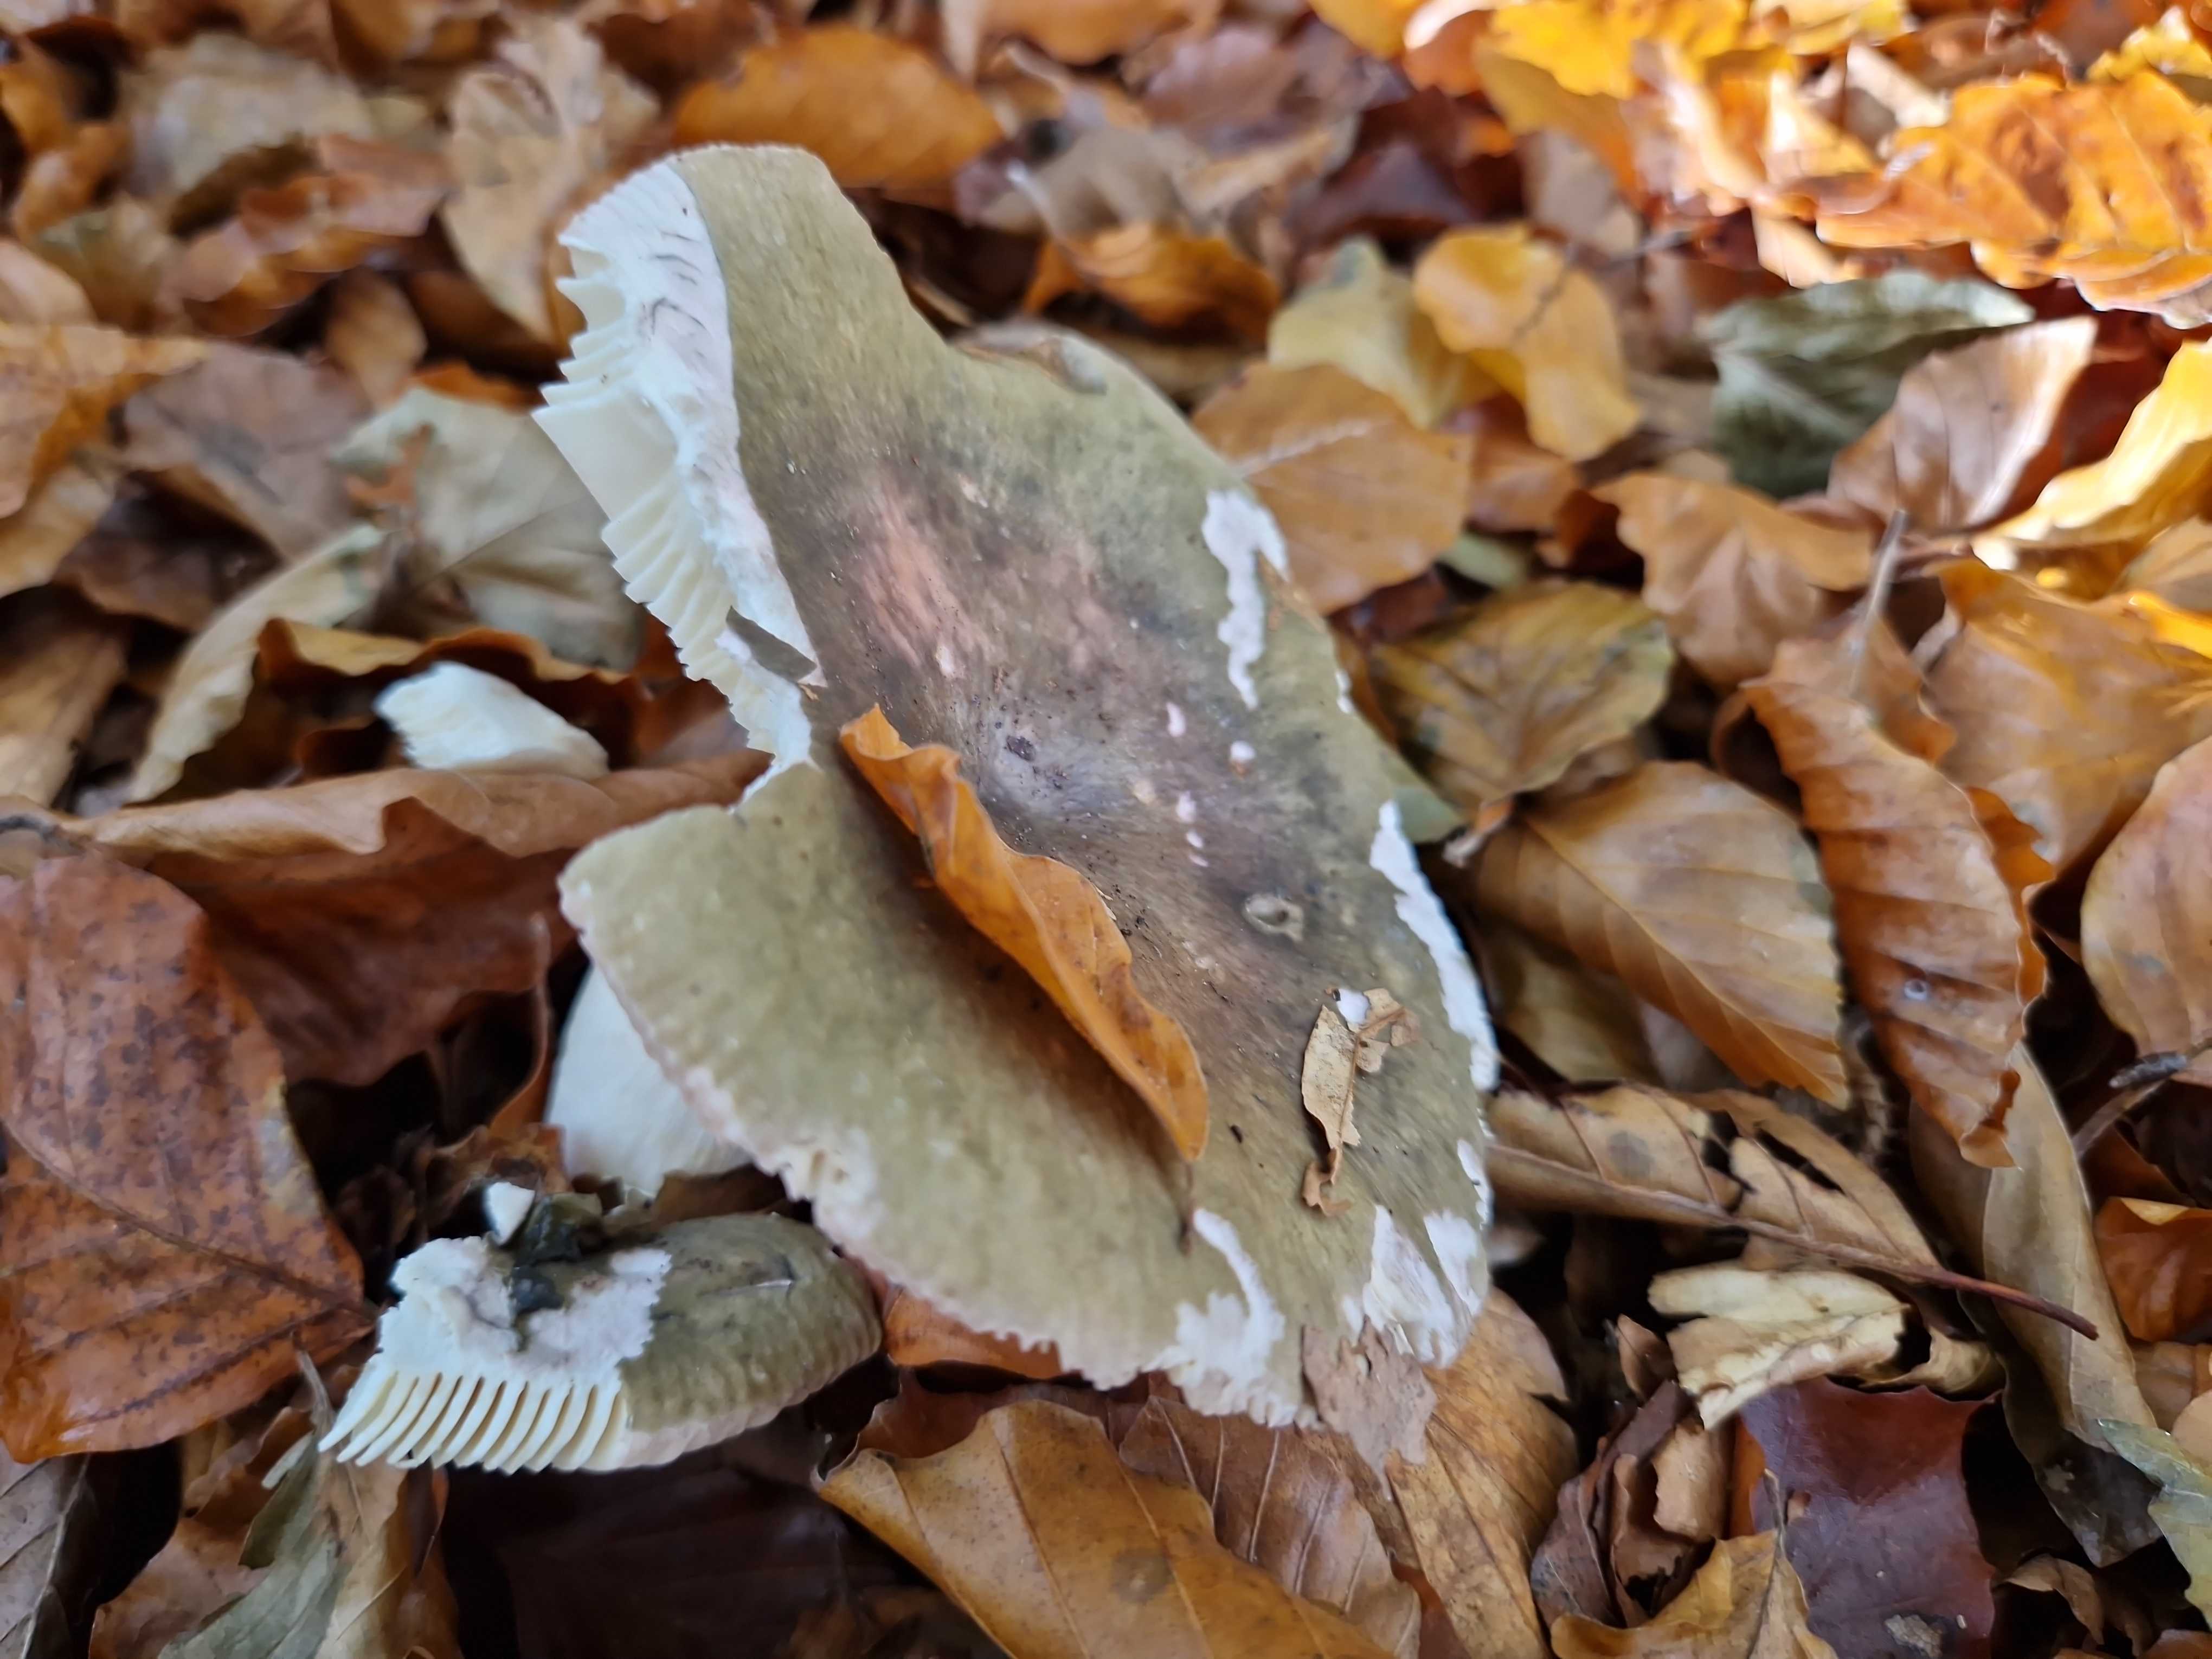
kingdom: Fungi
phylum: Basidiomycota
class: Agaricomycetes
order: Russulales
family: Russulaceae
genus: Russula
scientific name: Russula cyanoxantha
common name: broget skørhat
